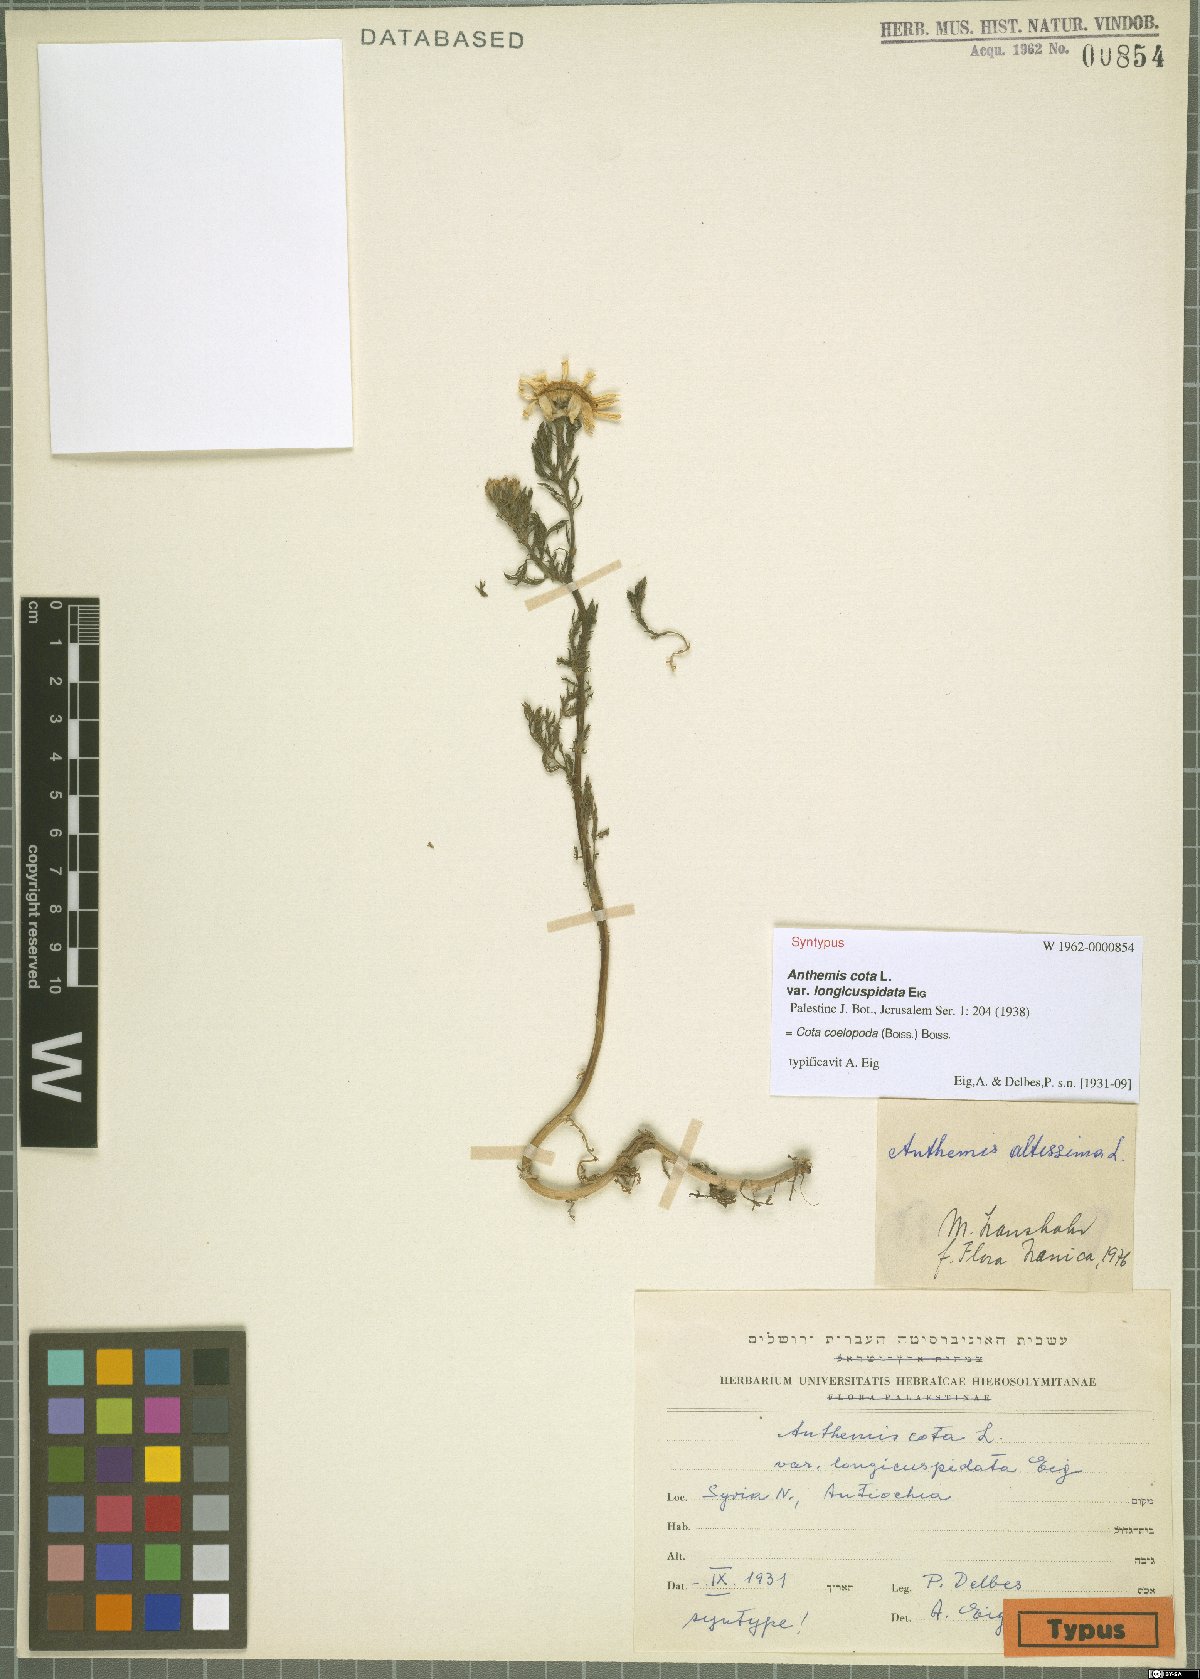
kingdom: Plantae
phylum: Tracheophyta
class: Magnoliopsida
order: Asterales
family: Asteraceae
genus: Cota
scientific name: Cota coelopoda
